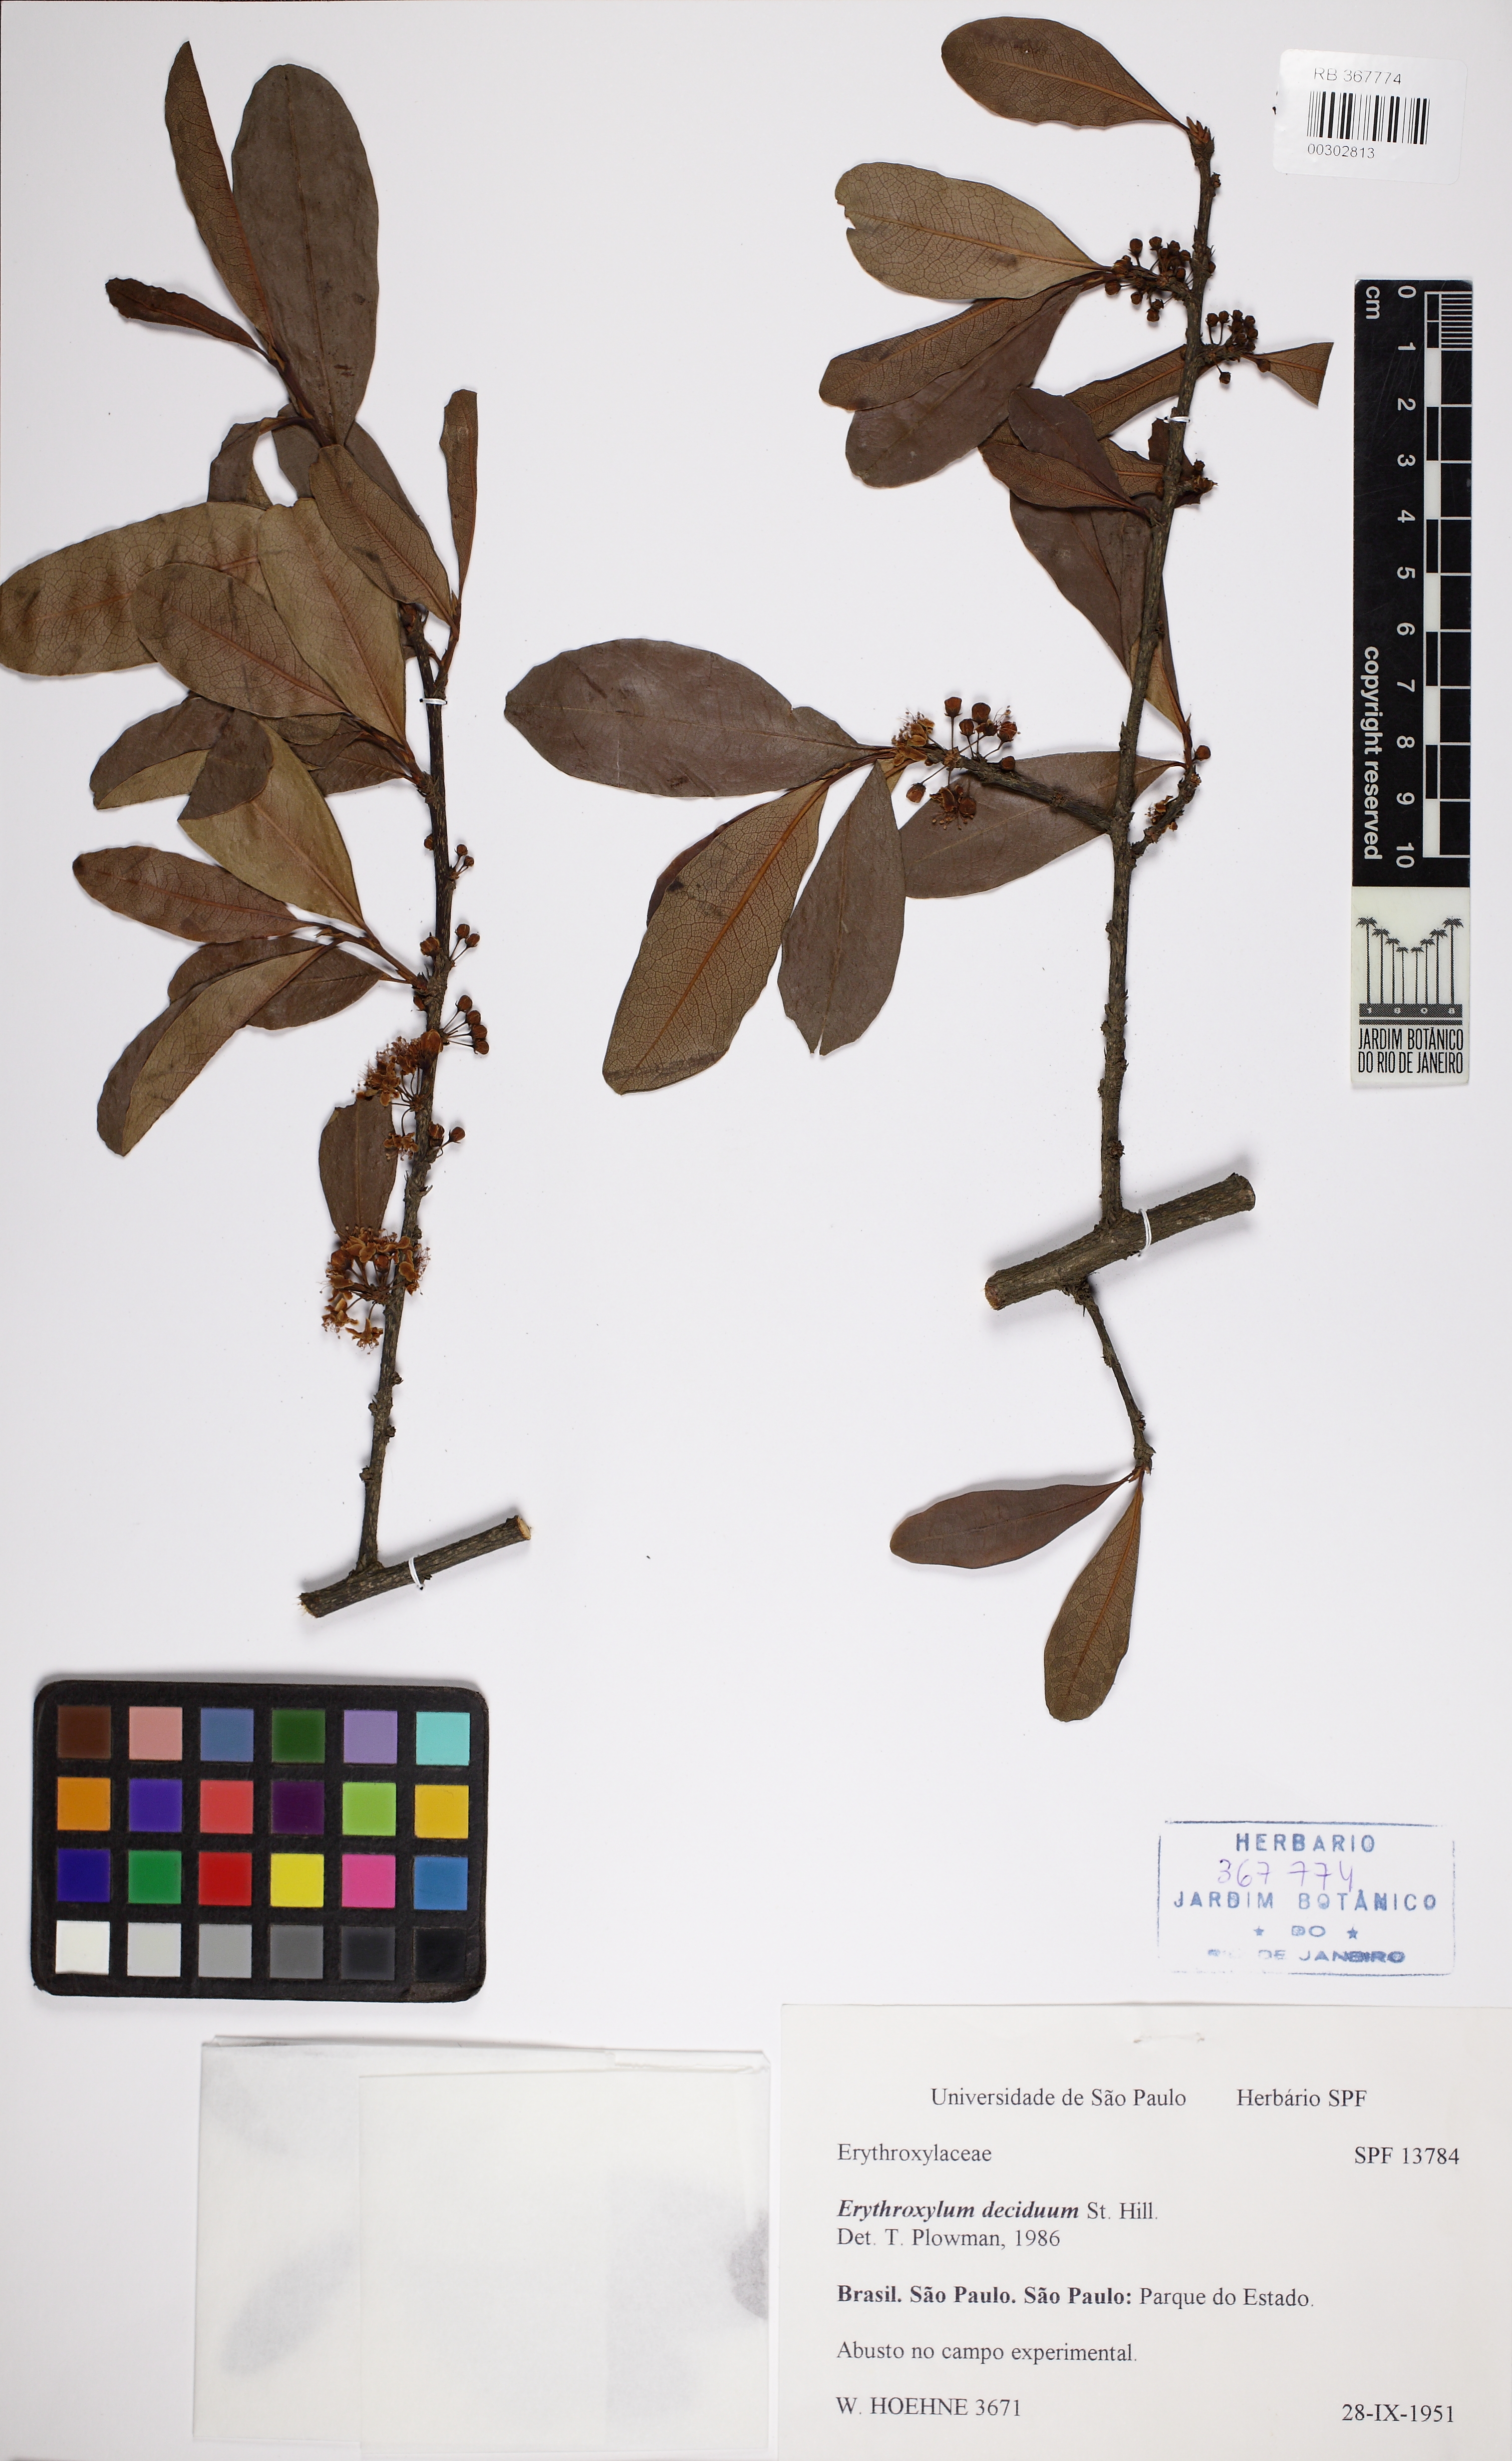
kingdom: Plantae
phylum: Tracheophyta
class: Magnoliopsida
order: Malpighiales
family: Erythroxylaceae
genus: Erythroxylum
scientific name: Erythroxylum deciduum
